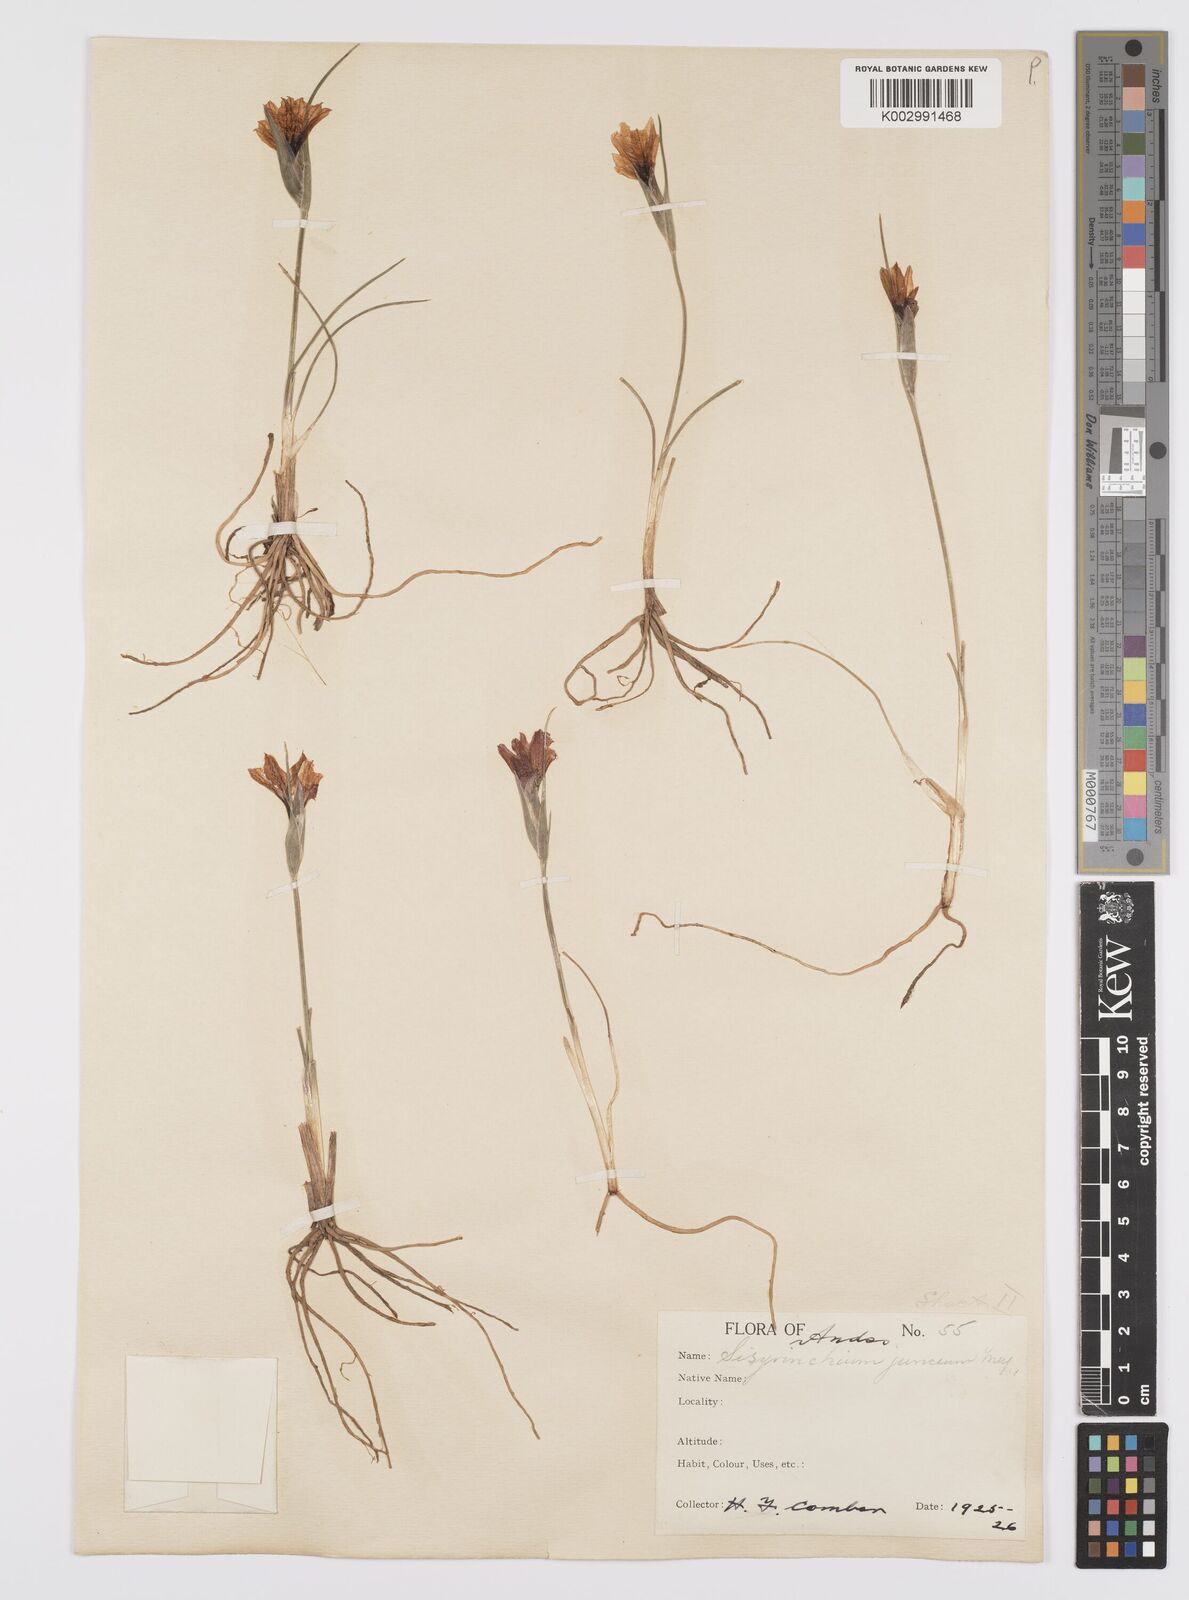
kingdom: Plantae
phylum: Tracheophyta
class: Liliopsida
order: Asparagales
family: Iridaceae
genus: Olsynium
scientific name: Olsynium junceum
